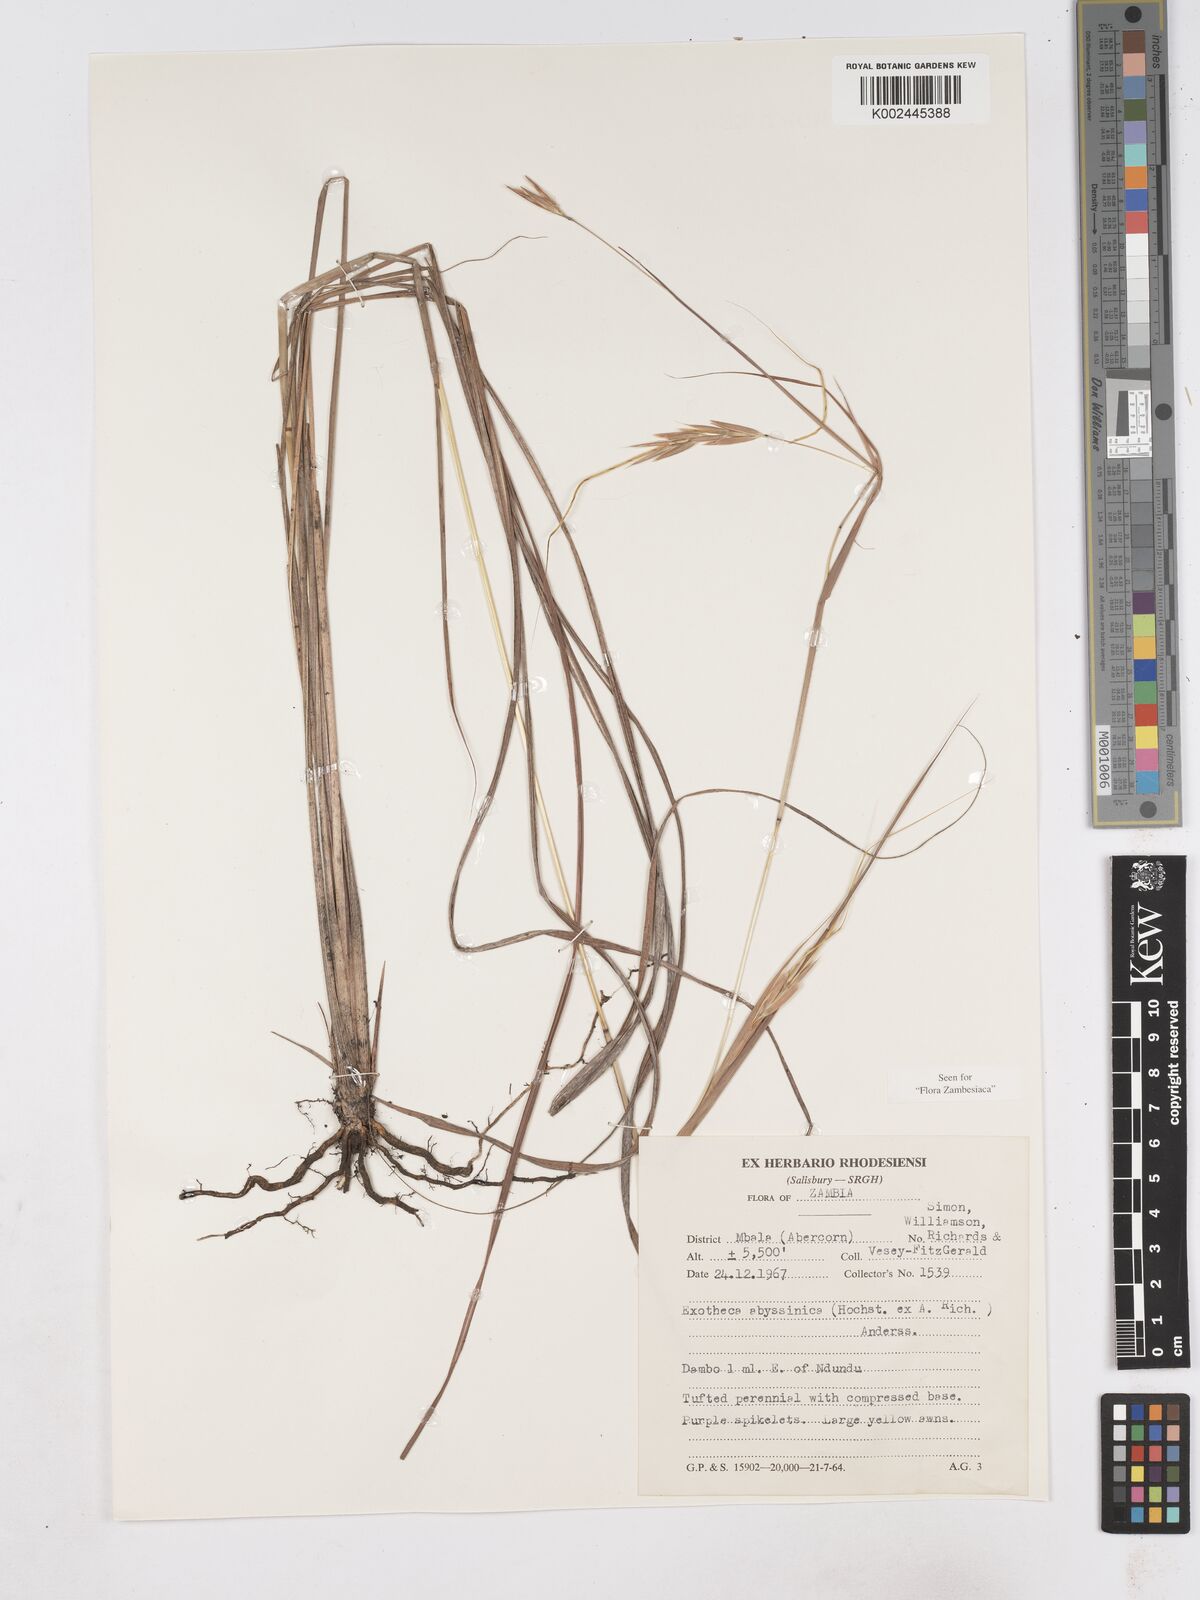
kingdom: Plantae
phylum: Tracheophyta
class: Liliopsida
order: Poales
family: Poaceae
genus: Exotheca
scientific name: Exotheca abyssinica
